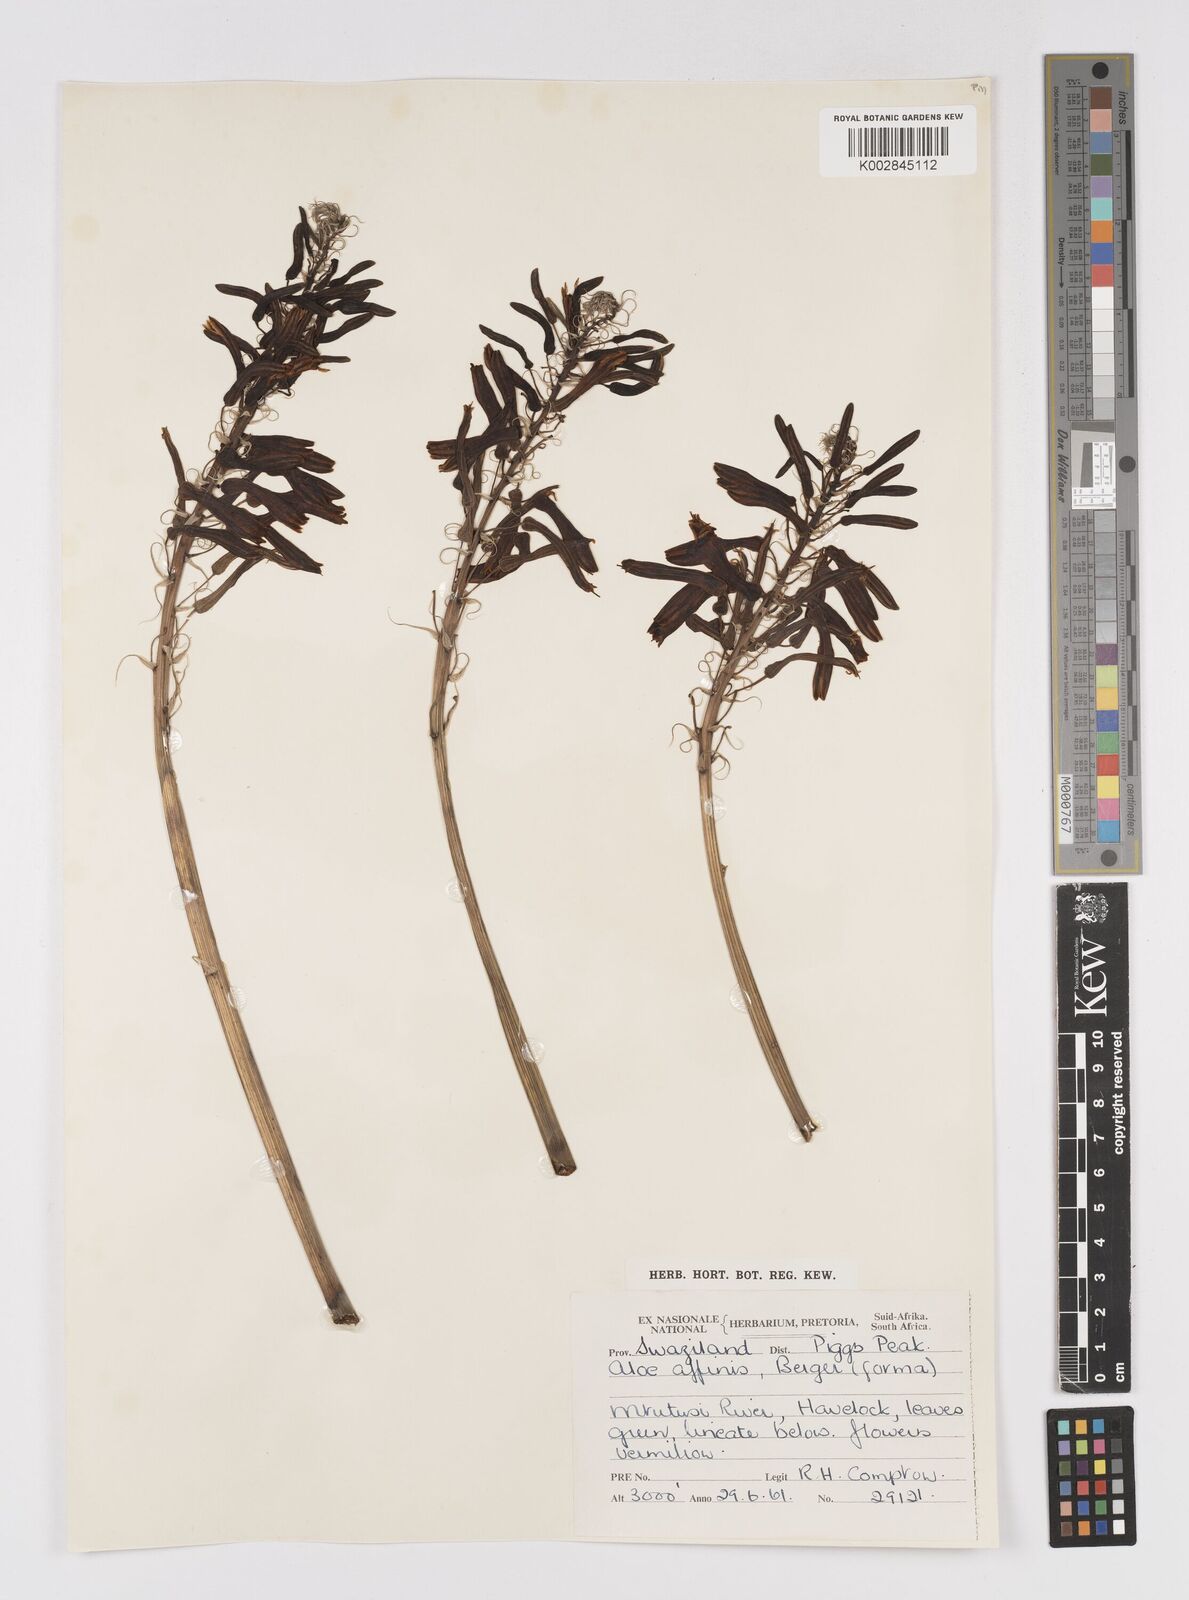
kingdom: Plantae
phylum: Tracheophyta
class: Liliopsida
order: Asparagales
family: Asphodelaceae
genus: Aloe
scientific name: Aloe affinis
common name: Spotted aloe
